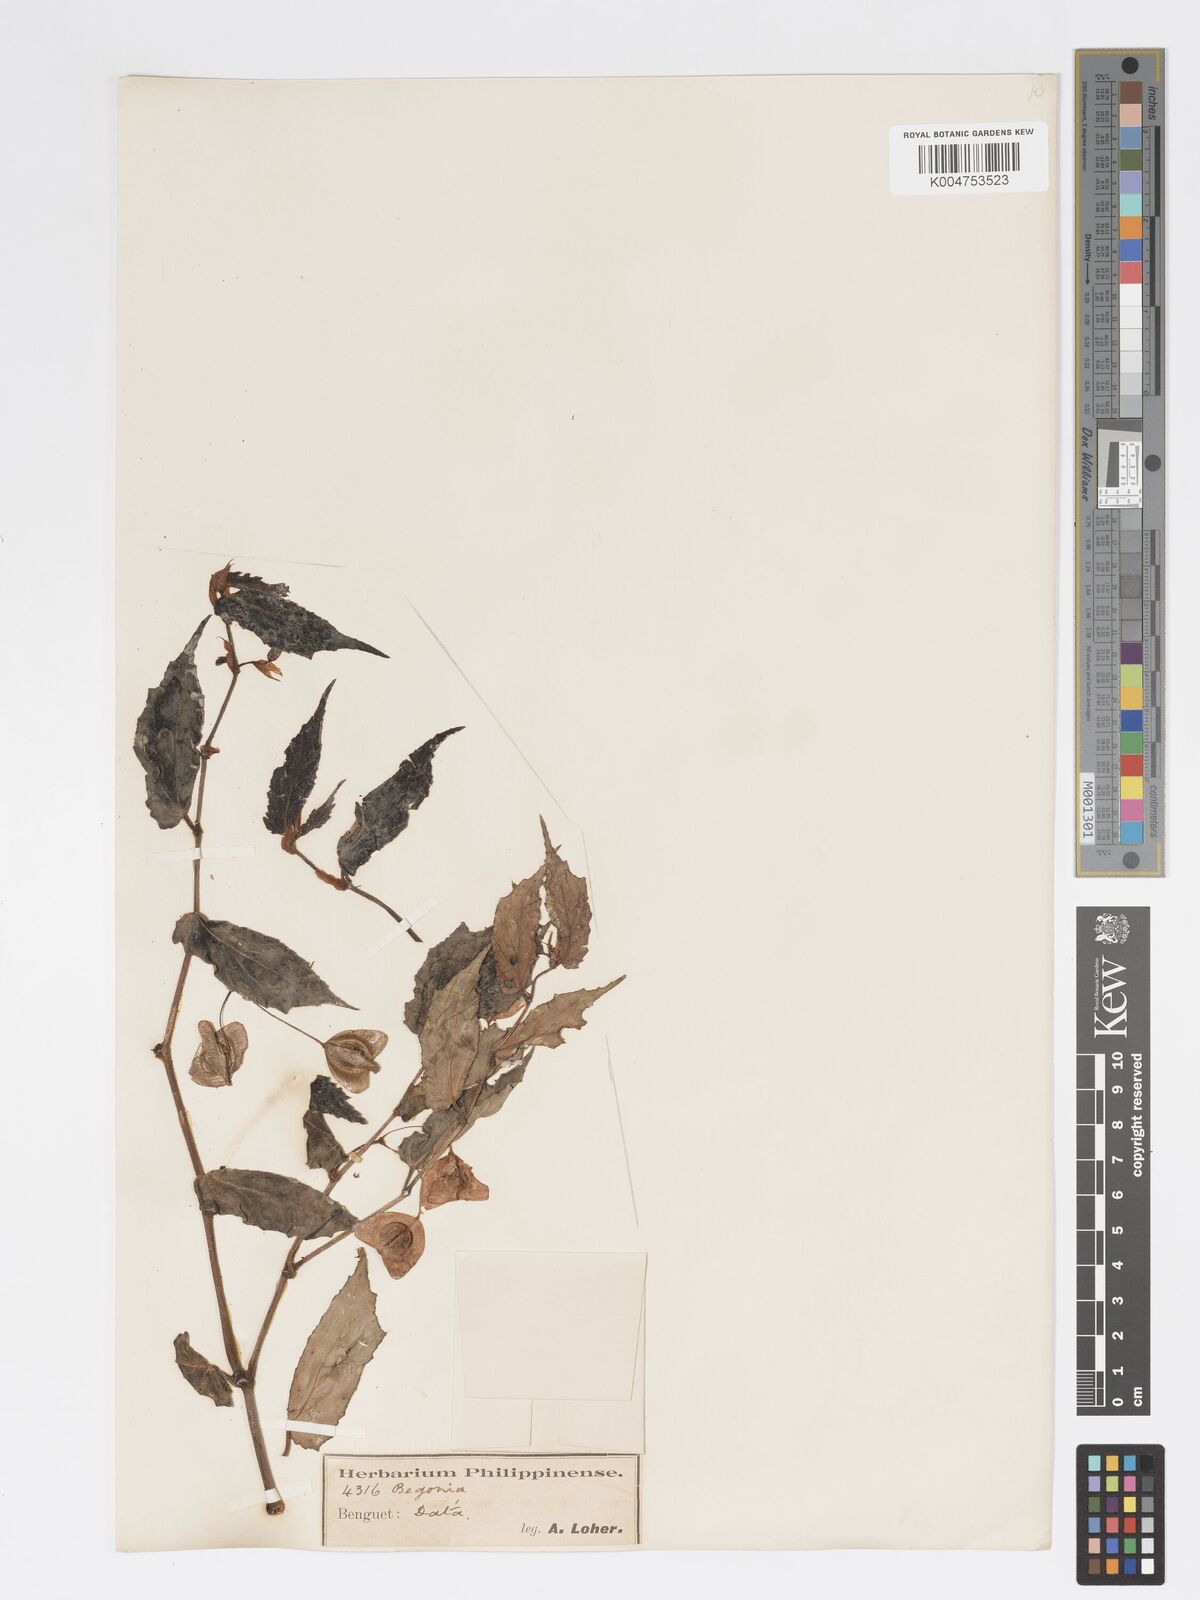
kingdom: Plantae
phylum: Tracheophyta
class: Magnoliopsida
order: Cucurbitales
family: Begoniaceae
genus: Begonia
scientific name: Begonia
